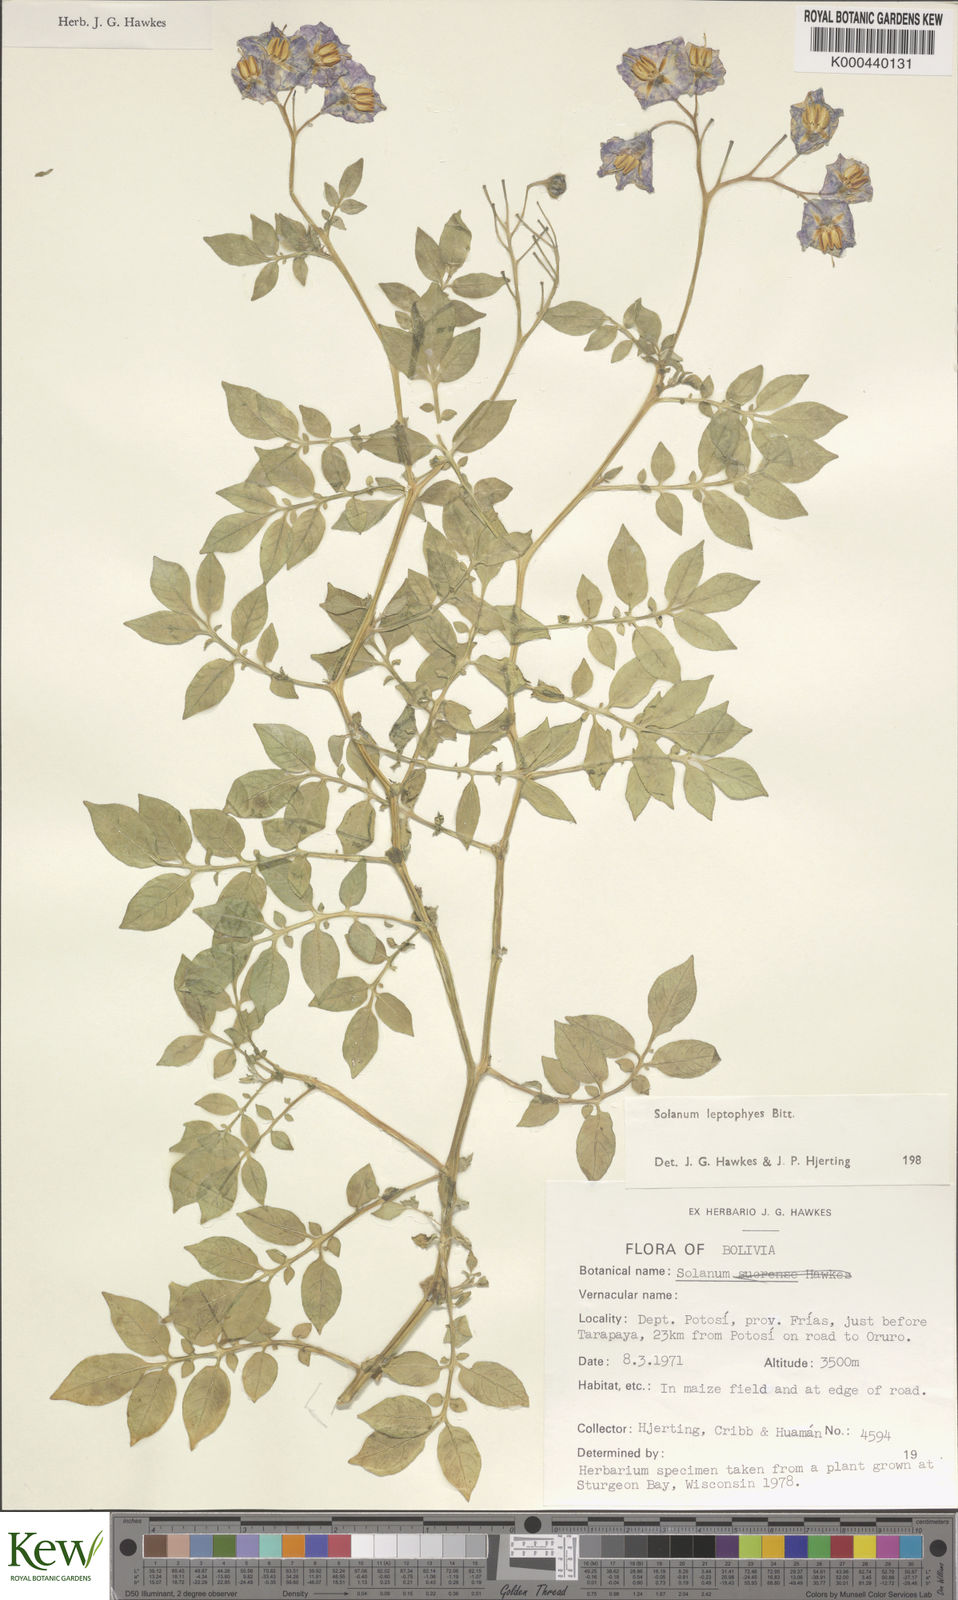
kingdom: Plantae
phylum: Tracheophyta
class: Magnoliopsida
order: Solanales
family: Solanaceae
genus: Solanum
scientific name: Solanum brevicaule
